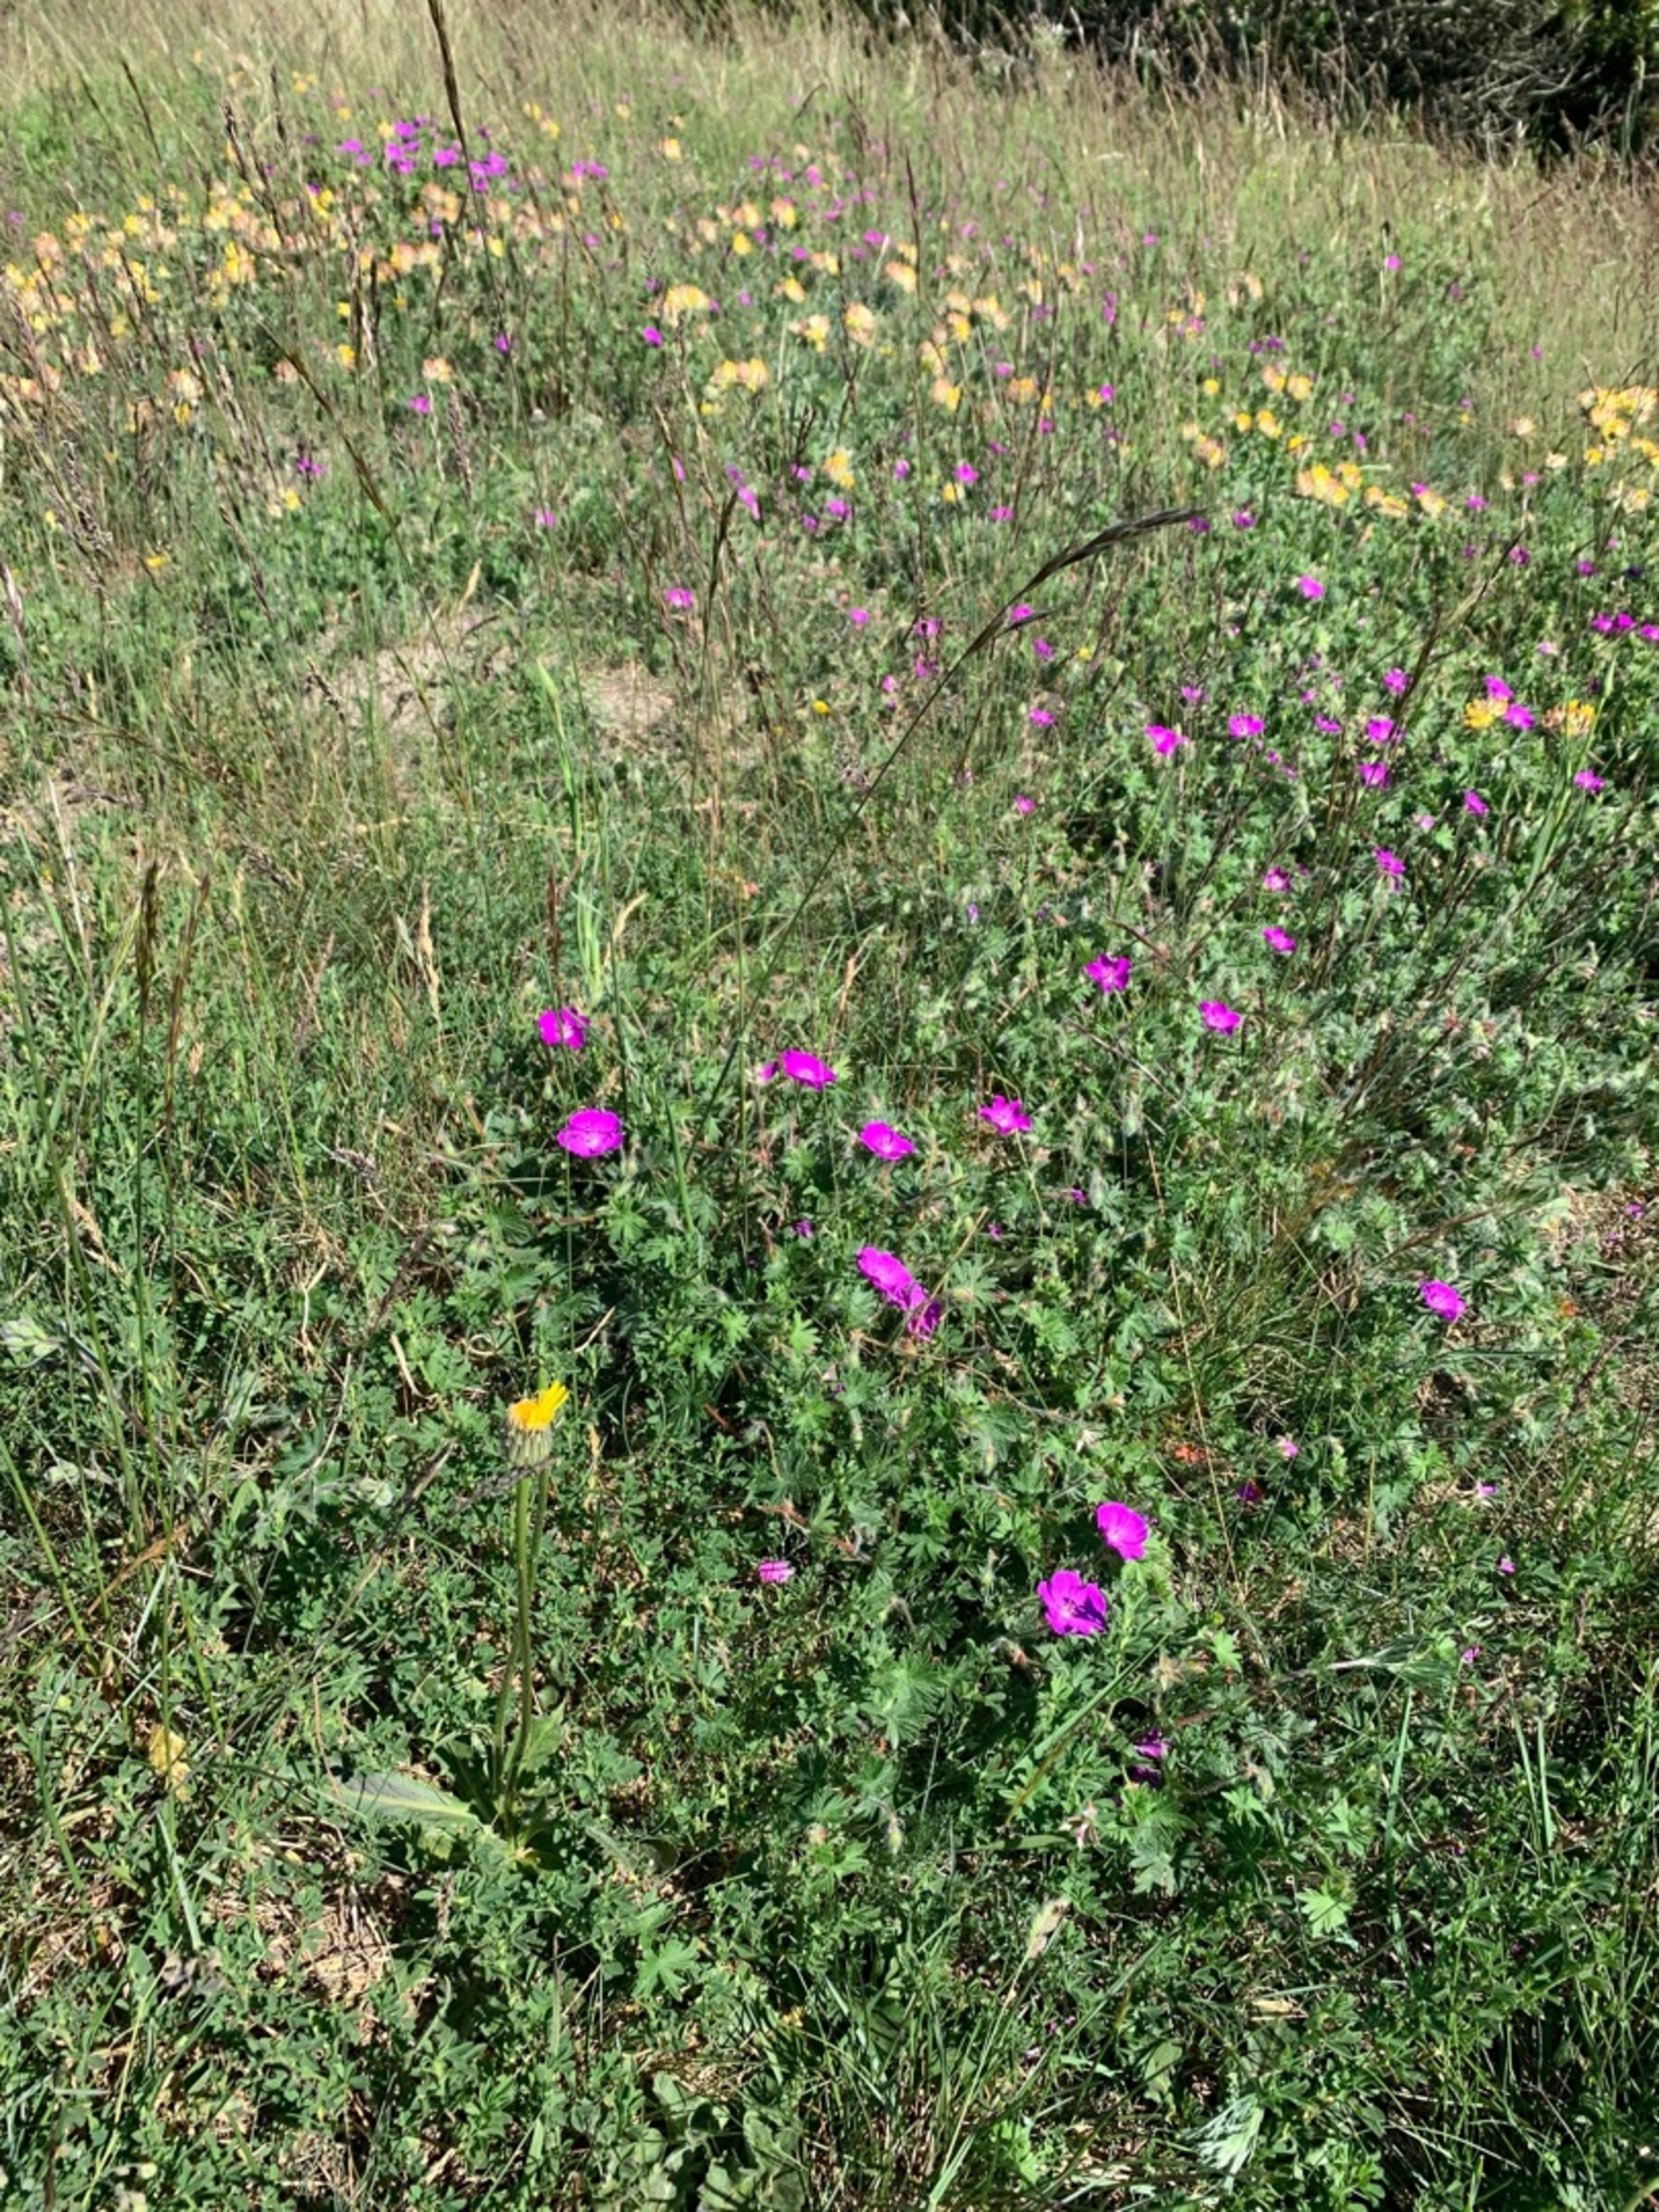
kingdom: Plantae
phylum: Tracheophyta
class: Magnoliopsida
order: Geraniales
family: Geraniaceae
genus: Geranium
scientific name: Geranium sanguineum
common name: Blodrød storkenæb
